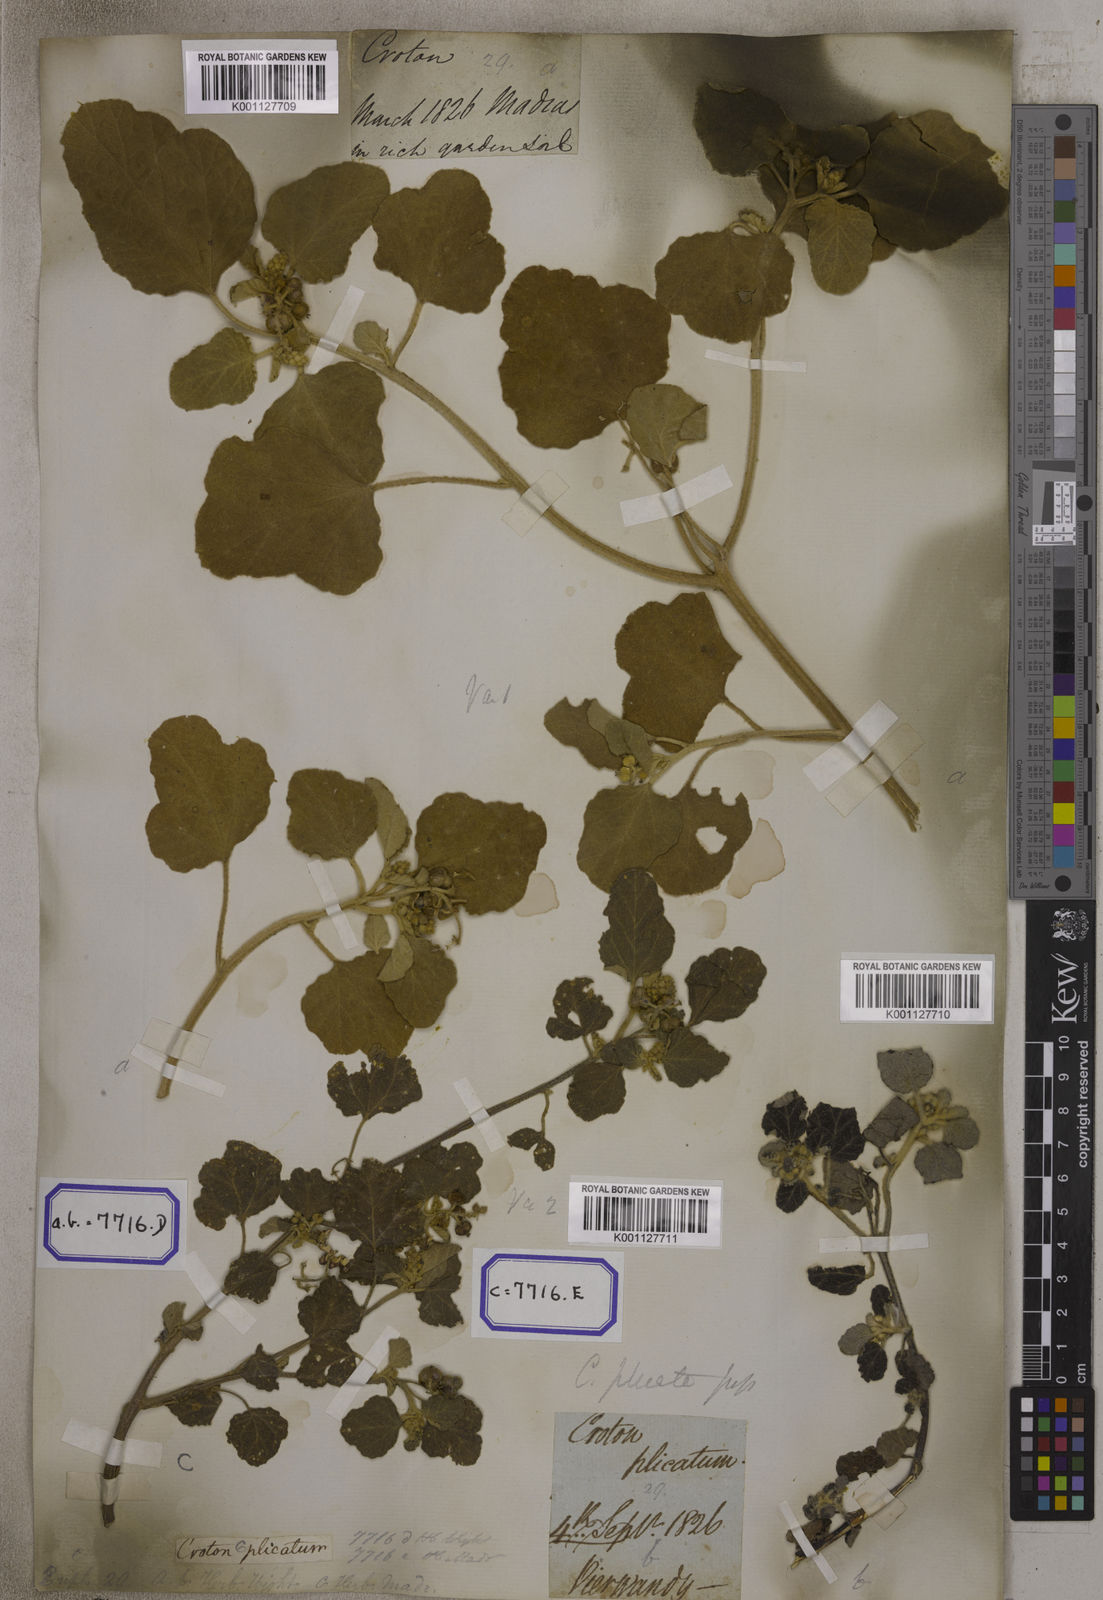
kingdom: Plantae
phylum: Tracheophyta
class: Magnoliopsida
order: Malpighiales
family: Euphorbiaceae
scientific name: Euphorbiaceae
